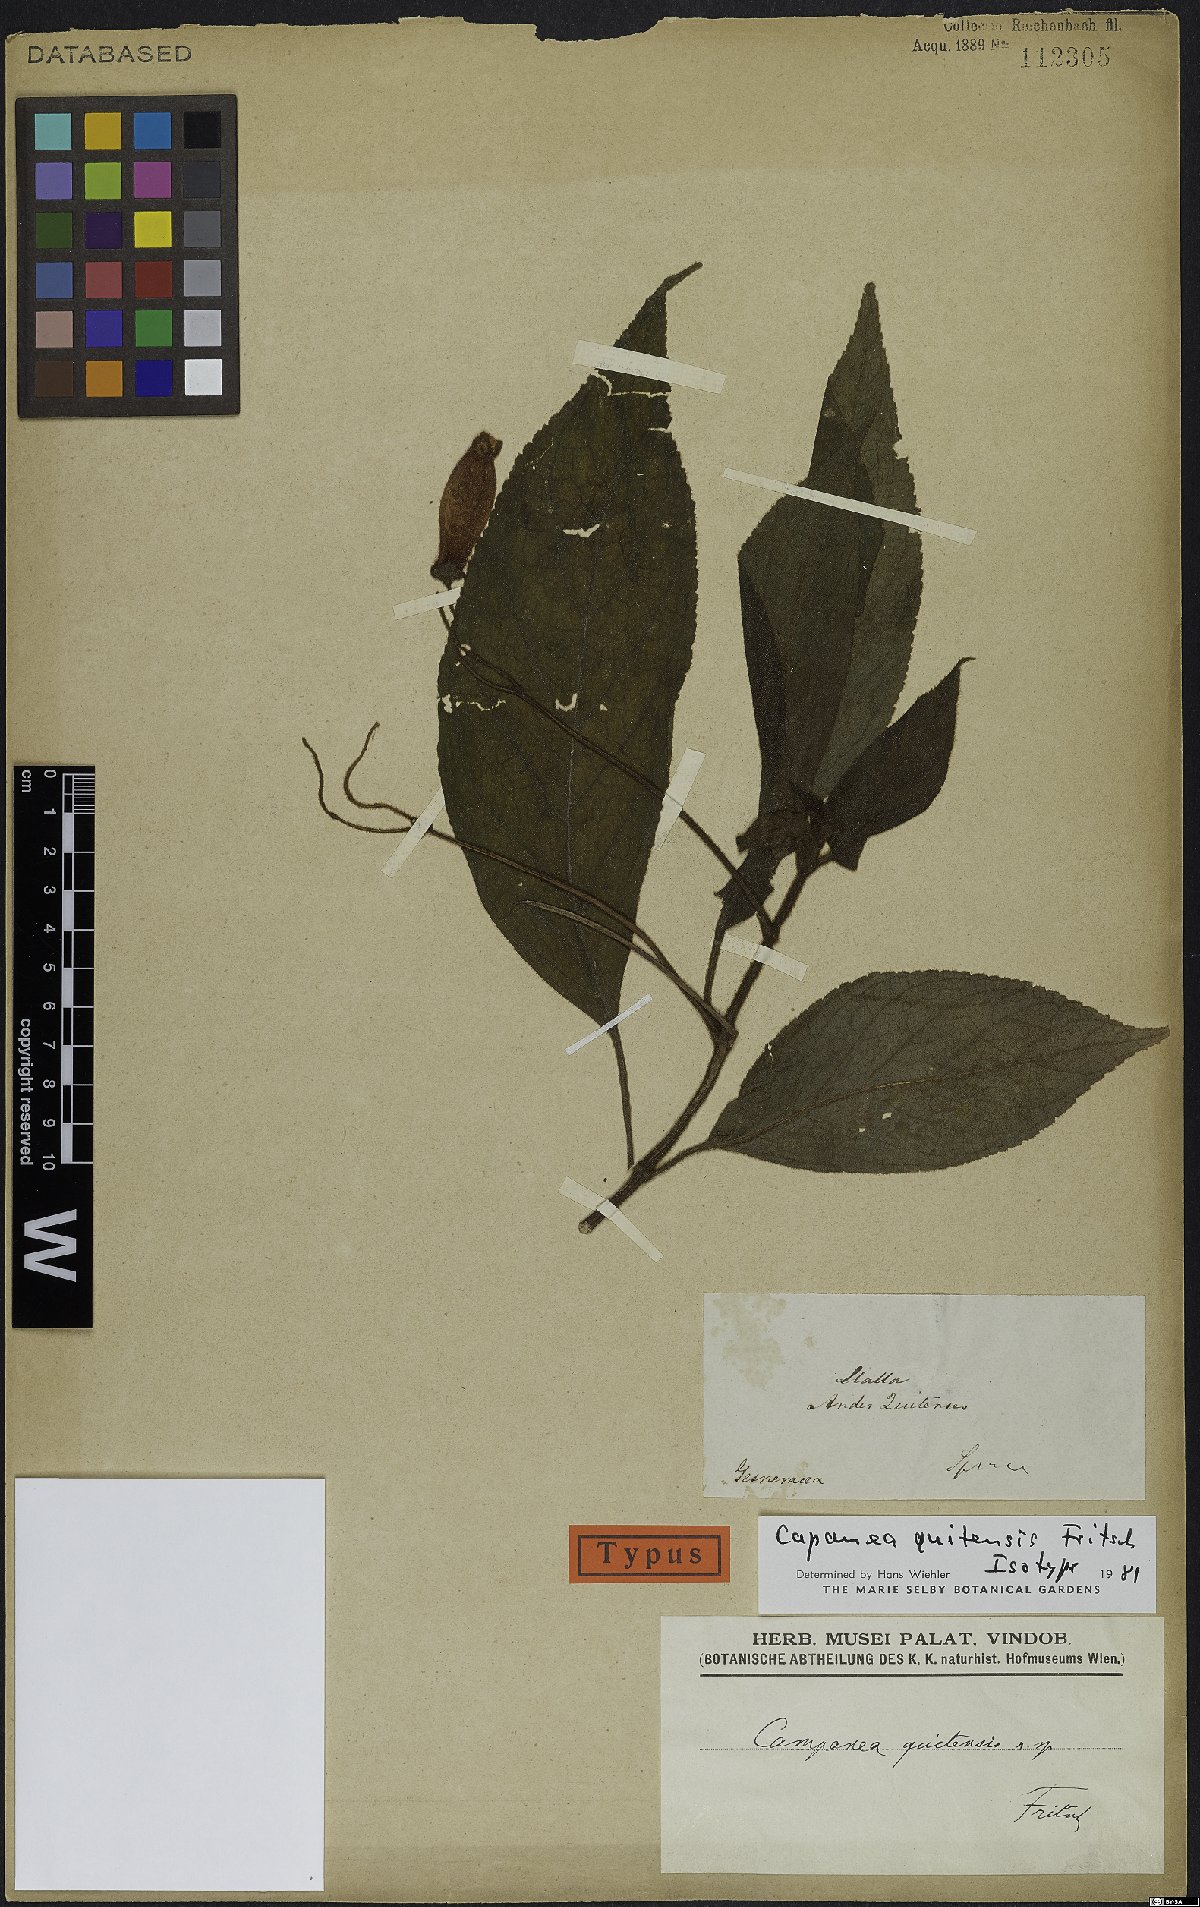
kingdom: Plantae
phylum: Tracheophyta
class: Magnoliopsida
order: Lamiales
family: Gesneriaceae
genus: Kohleria
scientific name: Kohleria affinis
